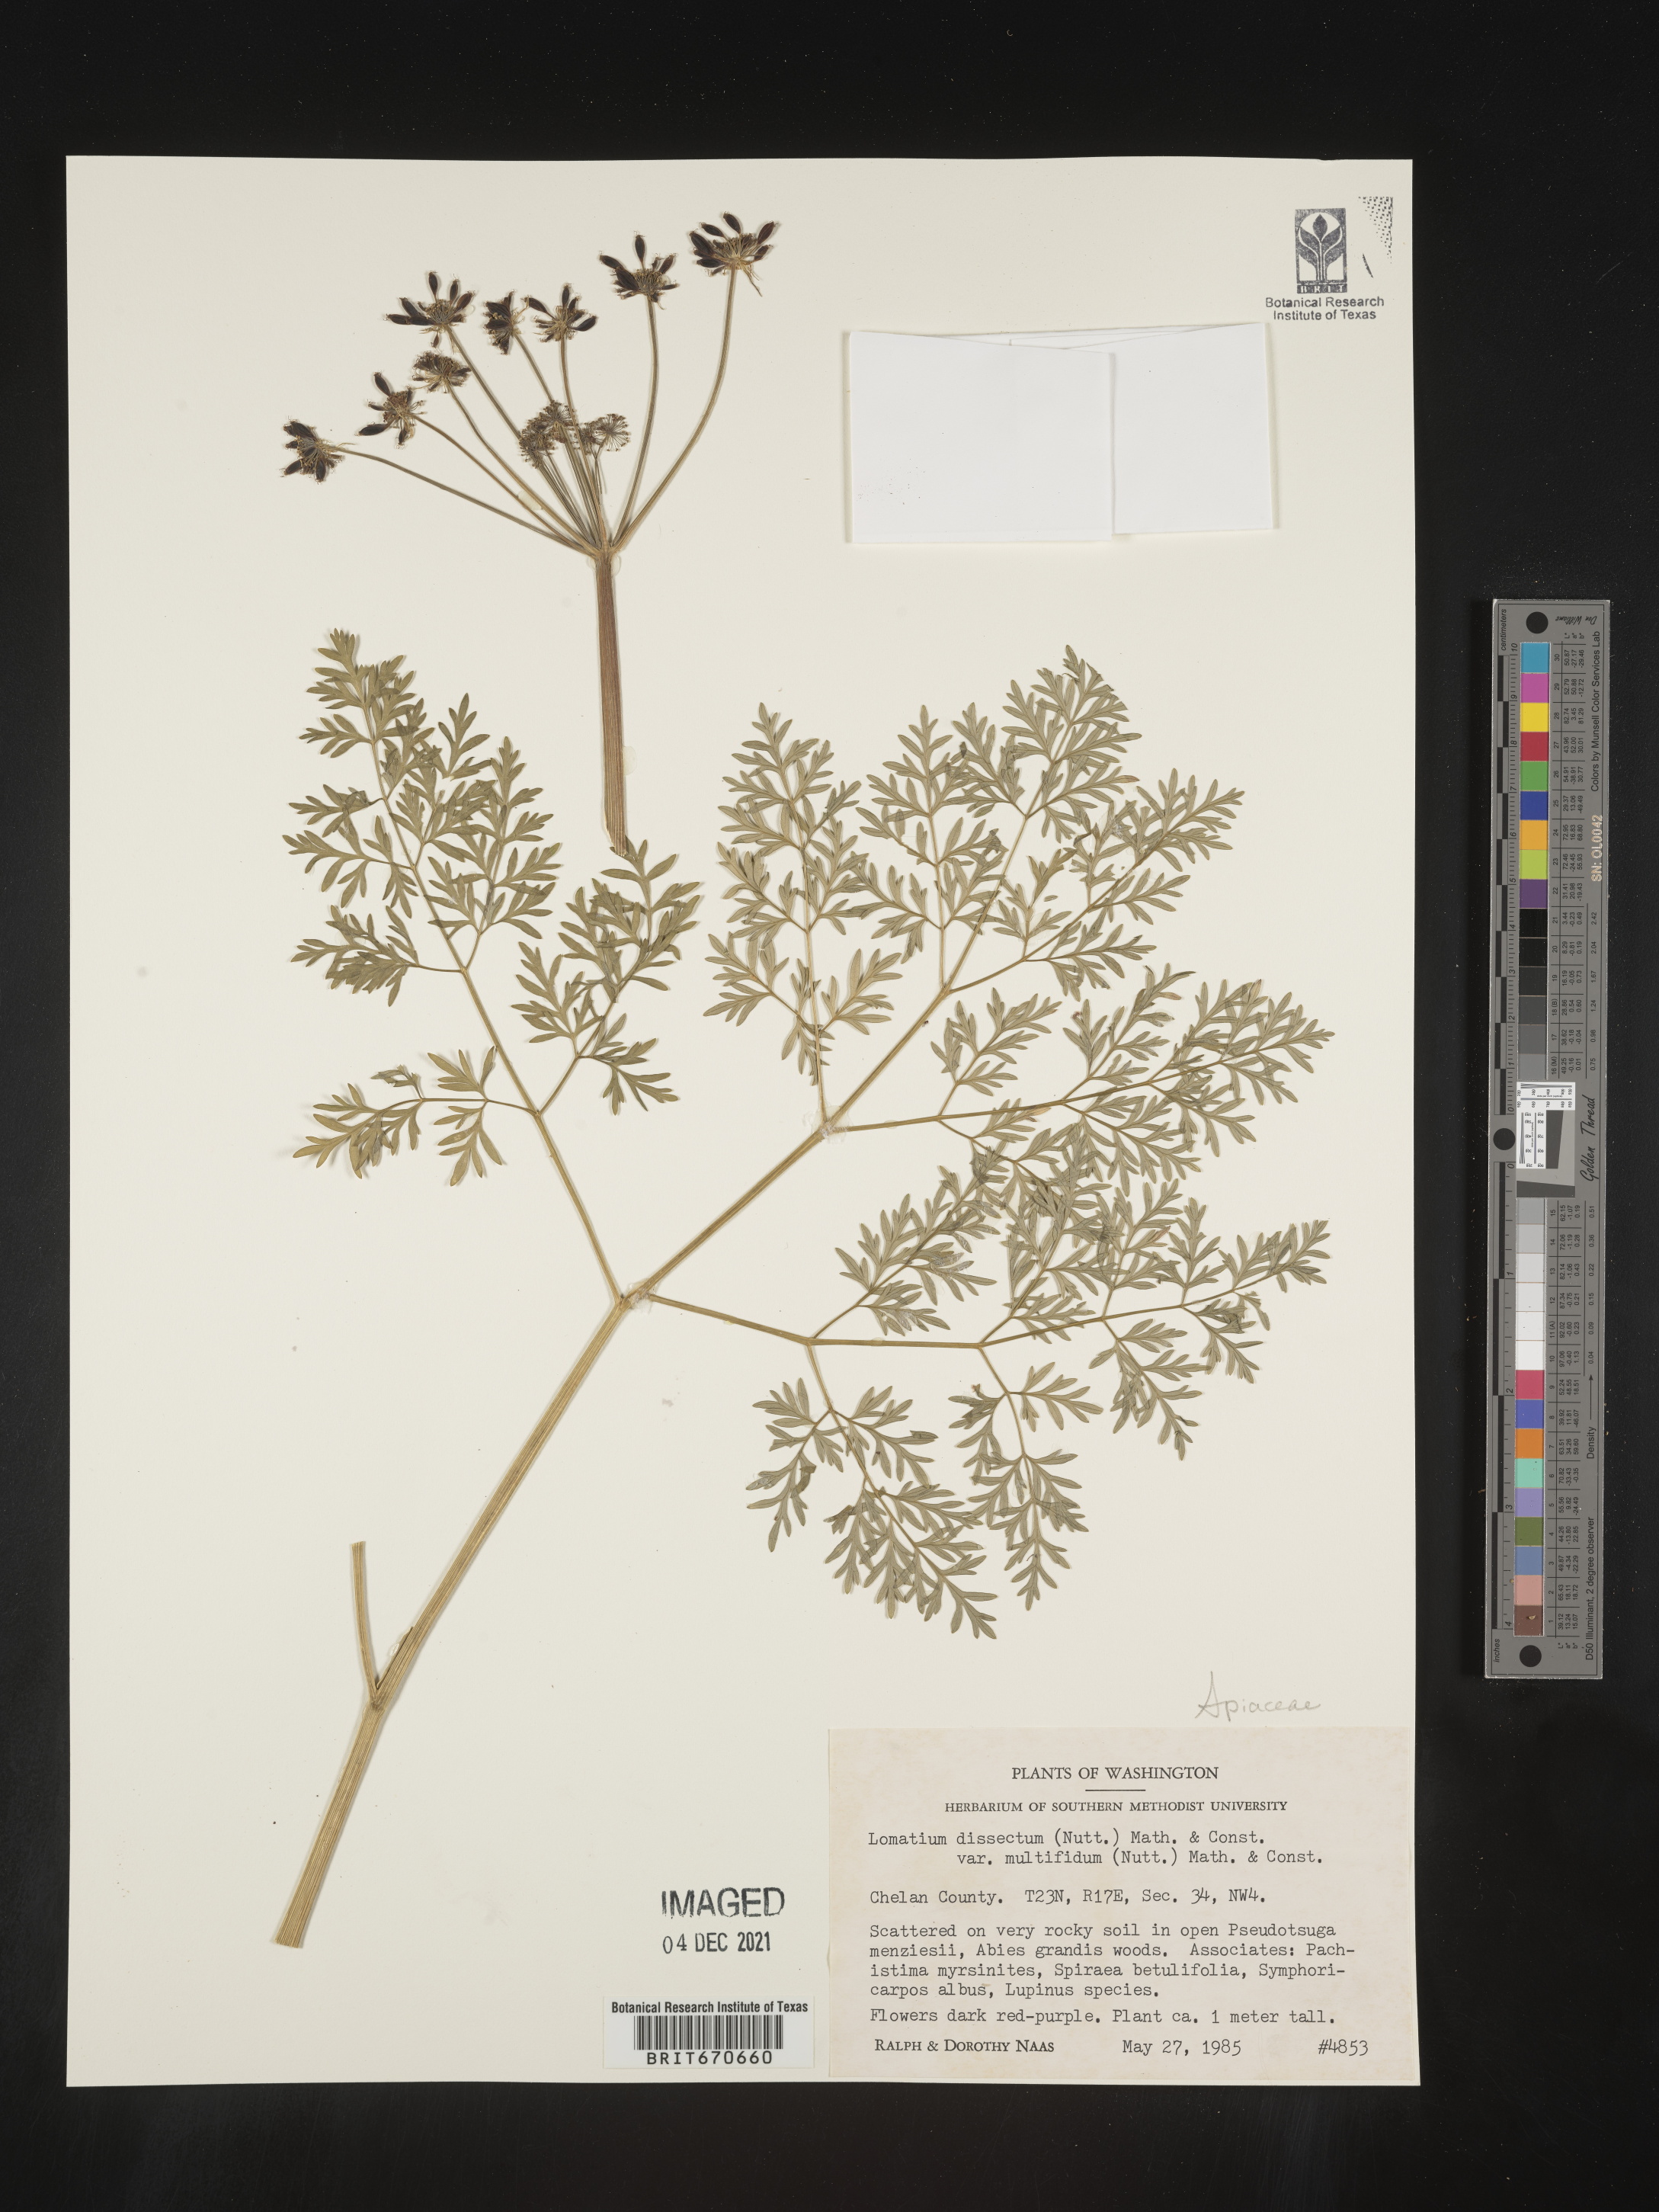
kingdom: Plantae
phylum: Tracheophyta
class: Magnoliopsida
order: Apiales
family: Apiaceae
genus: Lomatium
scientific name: Lomatium dissectum
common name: Lomatium
